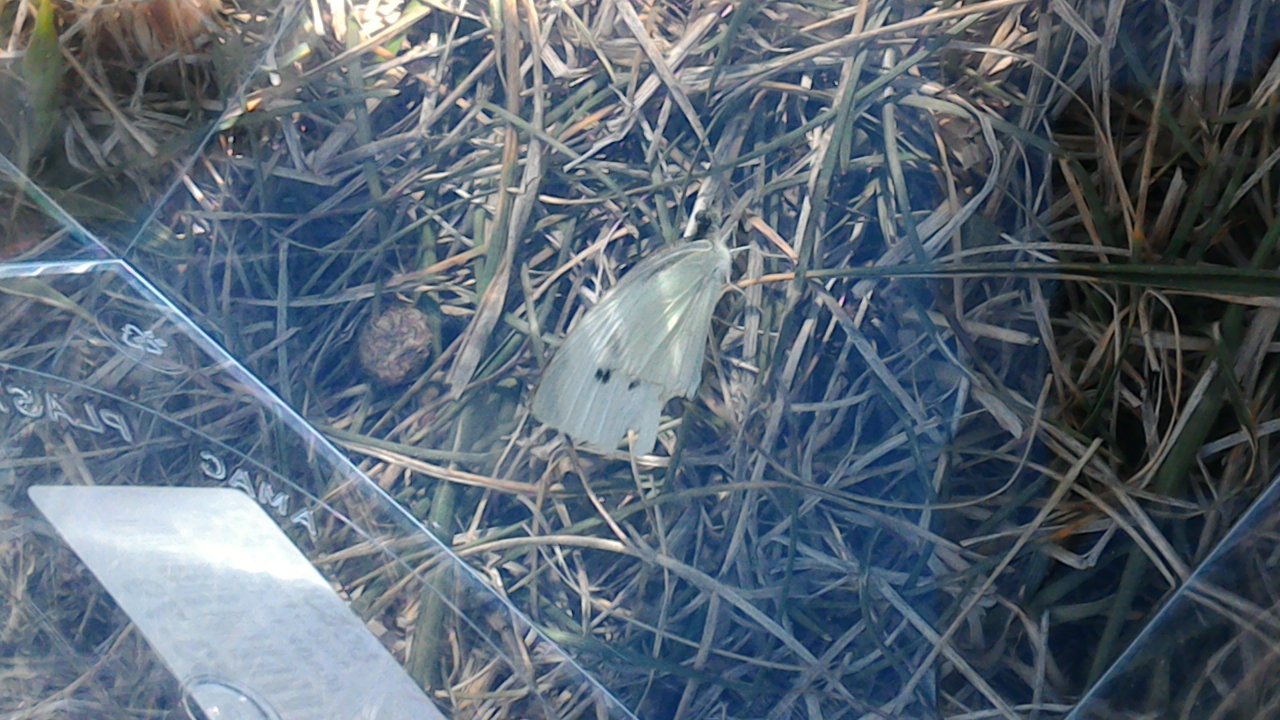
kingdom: Animalia
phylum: Arthropoda
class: Insecta
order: Lepidoptera
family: Pieridae
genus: Pieris
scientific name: Pieris rapae
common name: Cabbage White
